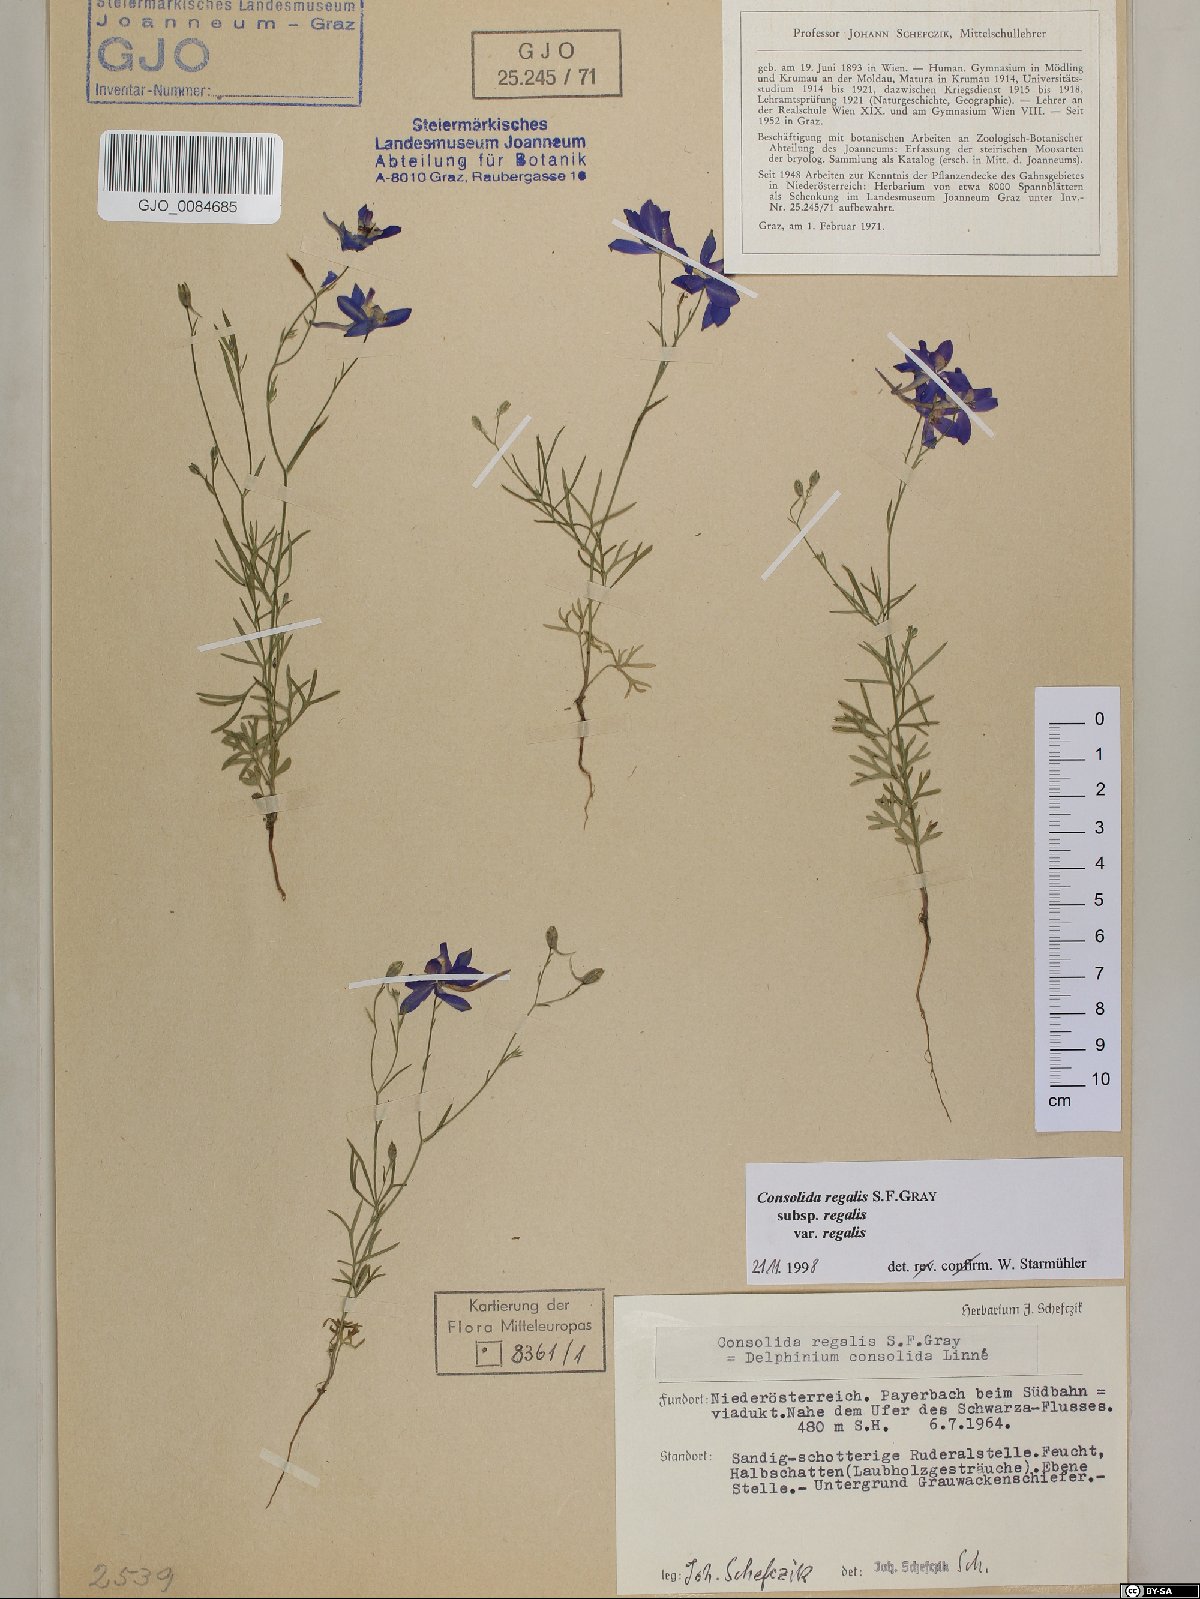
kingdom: Plantae
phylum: Tracheophyta
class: Magnoliopsida
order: Ranunculales
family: Ranunculaceae
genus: Delphinium
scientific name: Delphinium consolida
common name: Branching larkspur
